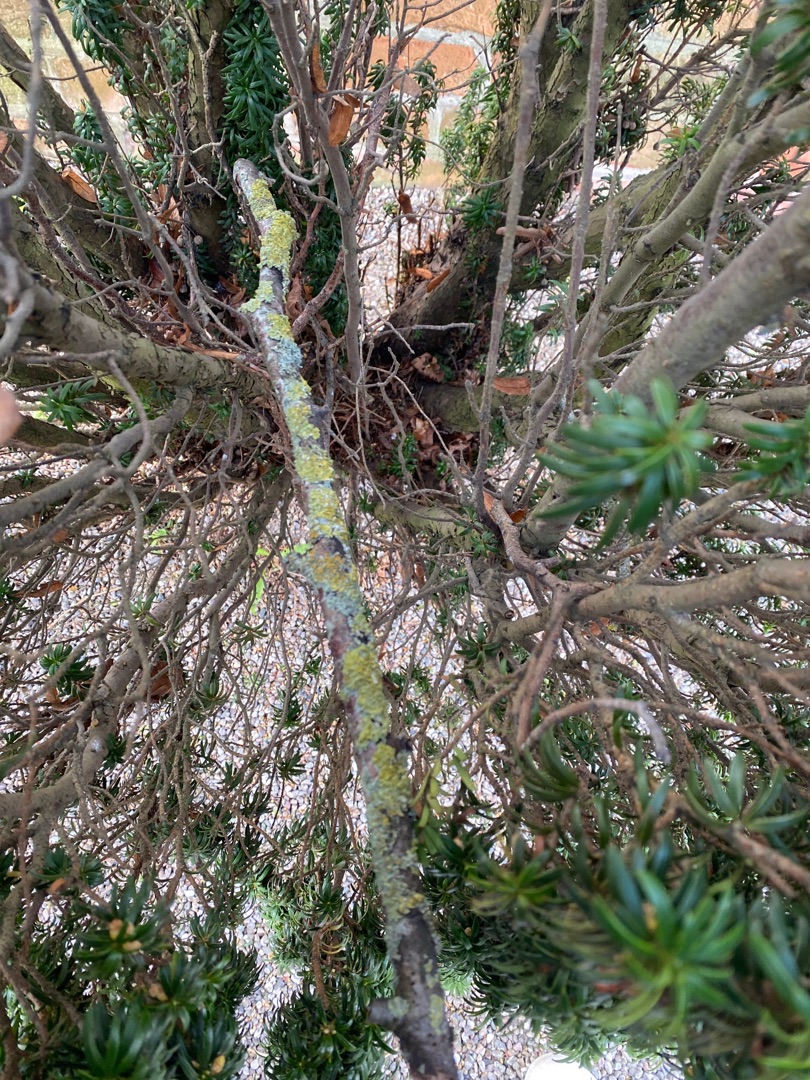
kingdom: Fungi
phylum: Ascomycota
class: Lecanoromycetes
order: Teloschistales
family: Teloschistaceae
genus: Xanthoria
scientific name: Xanthoria parietina
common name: Almindelig væggelav
